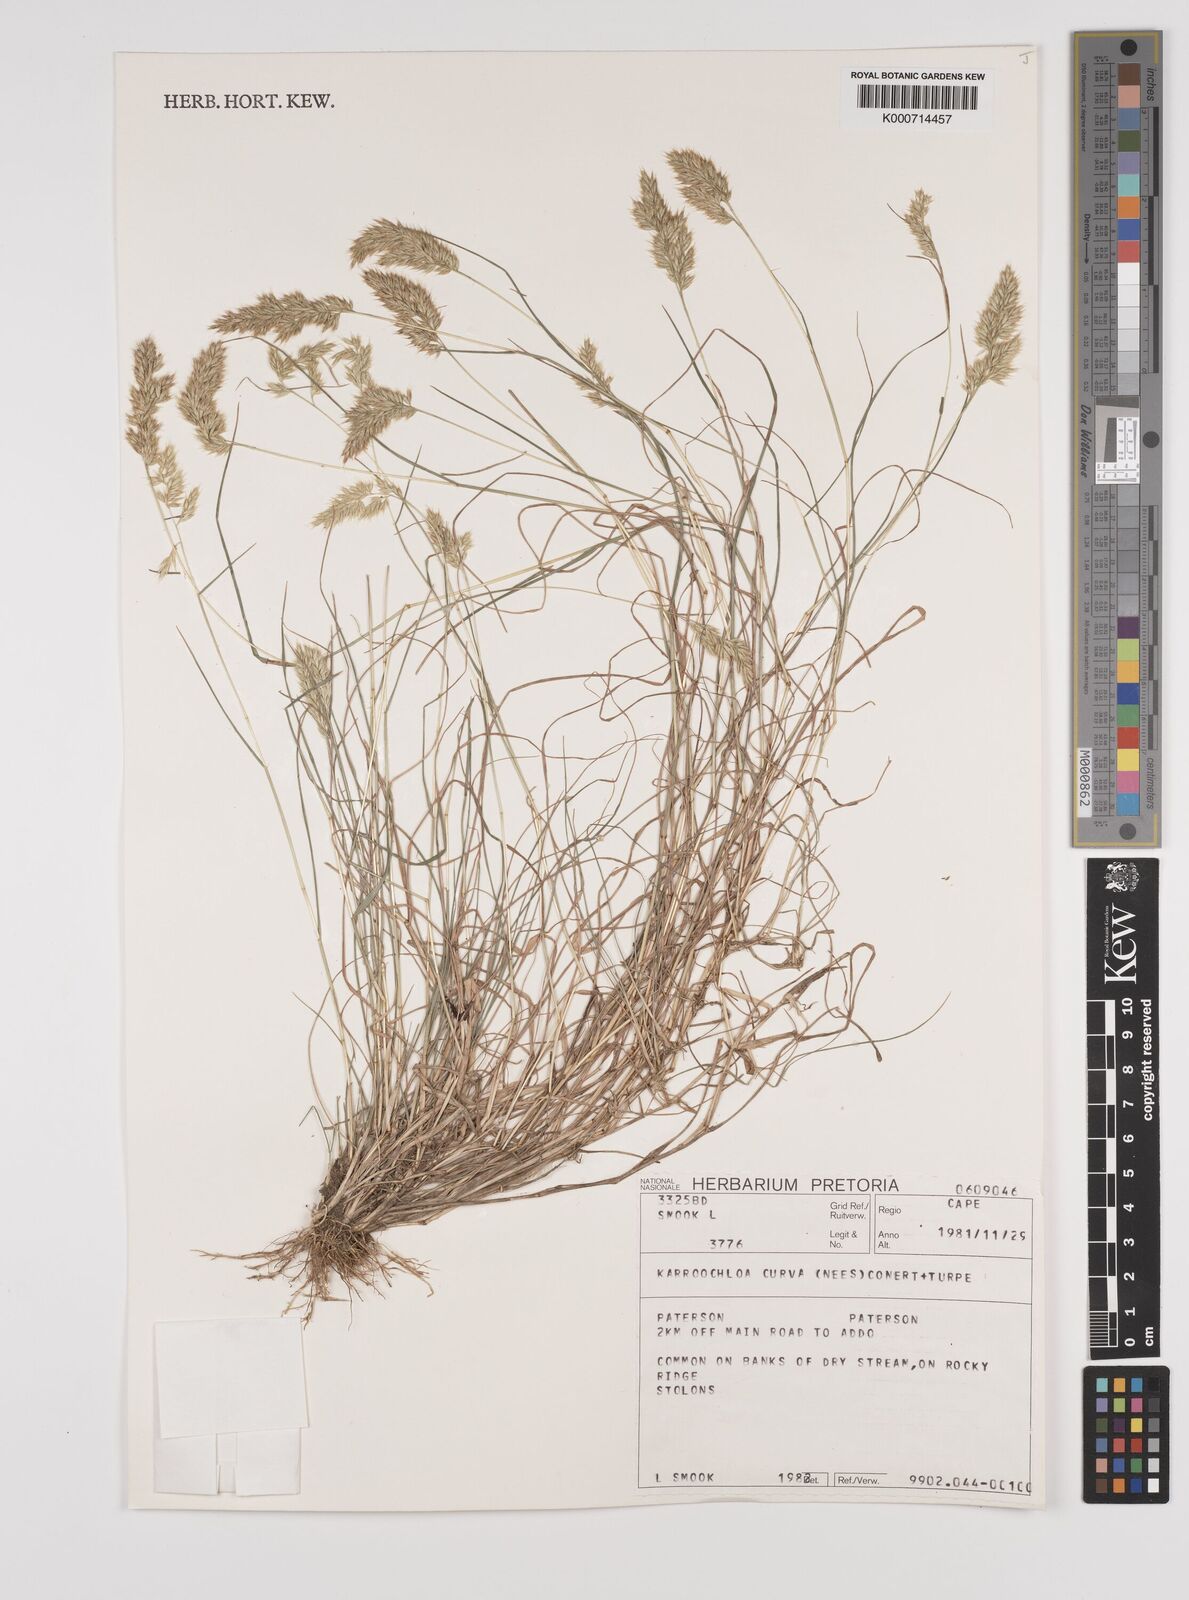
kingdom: Plantae
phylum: Tracheophyta
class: Liliopsida
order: Poales
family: Poaceae
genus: Rytidosperma
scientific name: Rytidosperma
